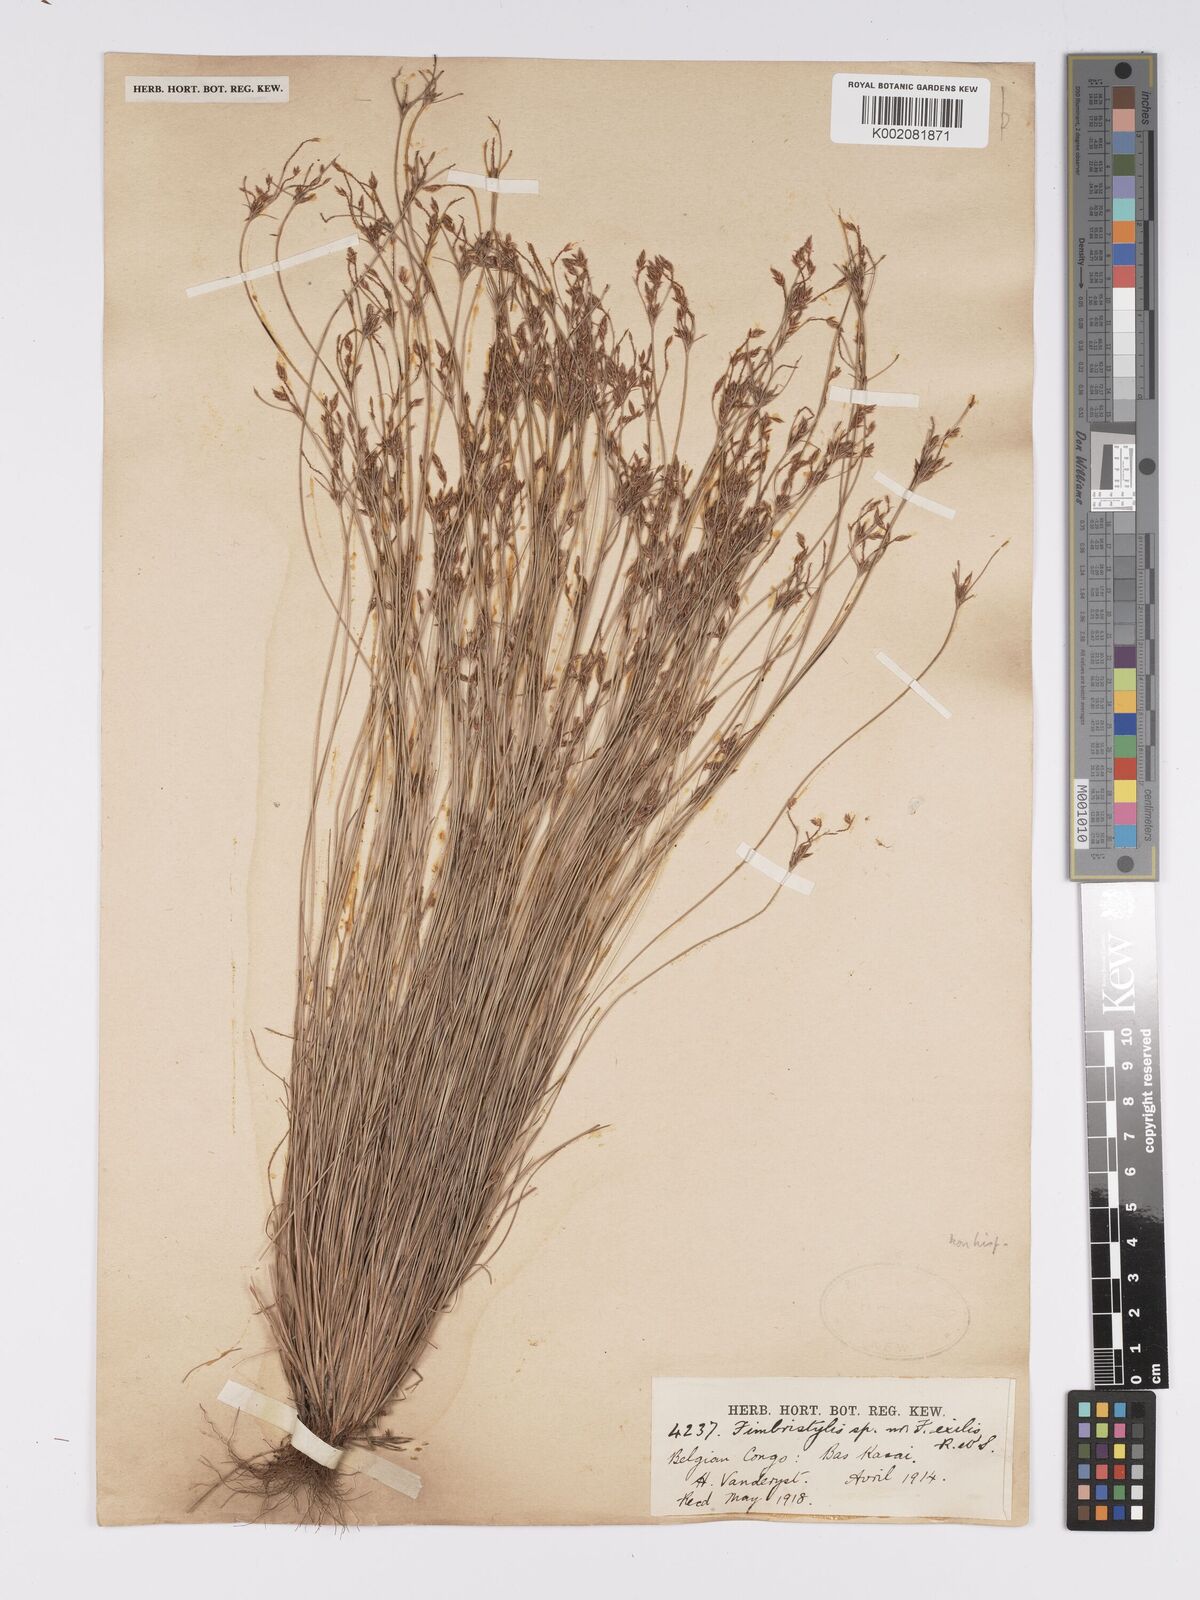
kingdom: Plantae
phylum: Tracheophyta
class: Liliopsida
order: Poales
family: Cyperaceae
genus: Bulbostylis
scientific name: Bulbostylis
